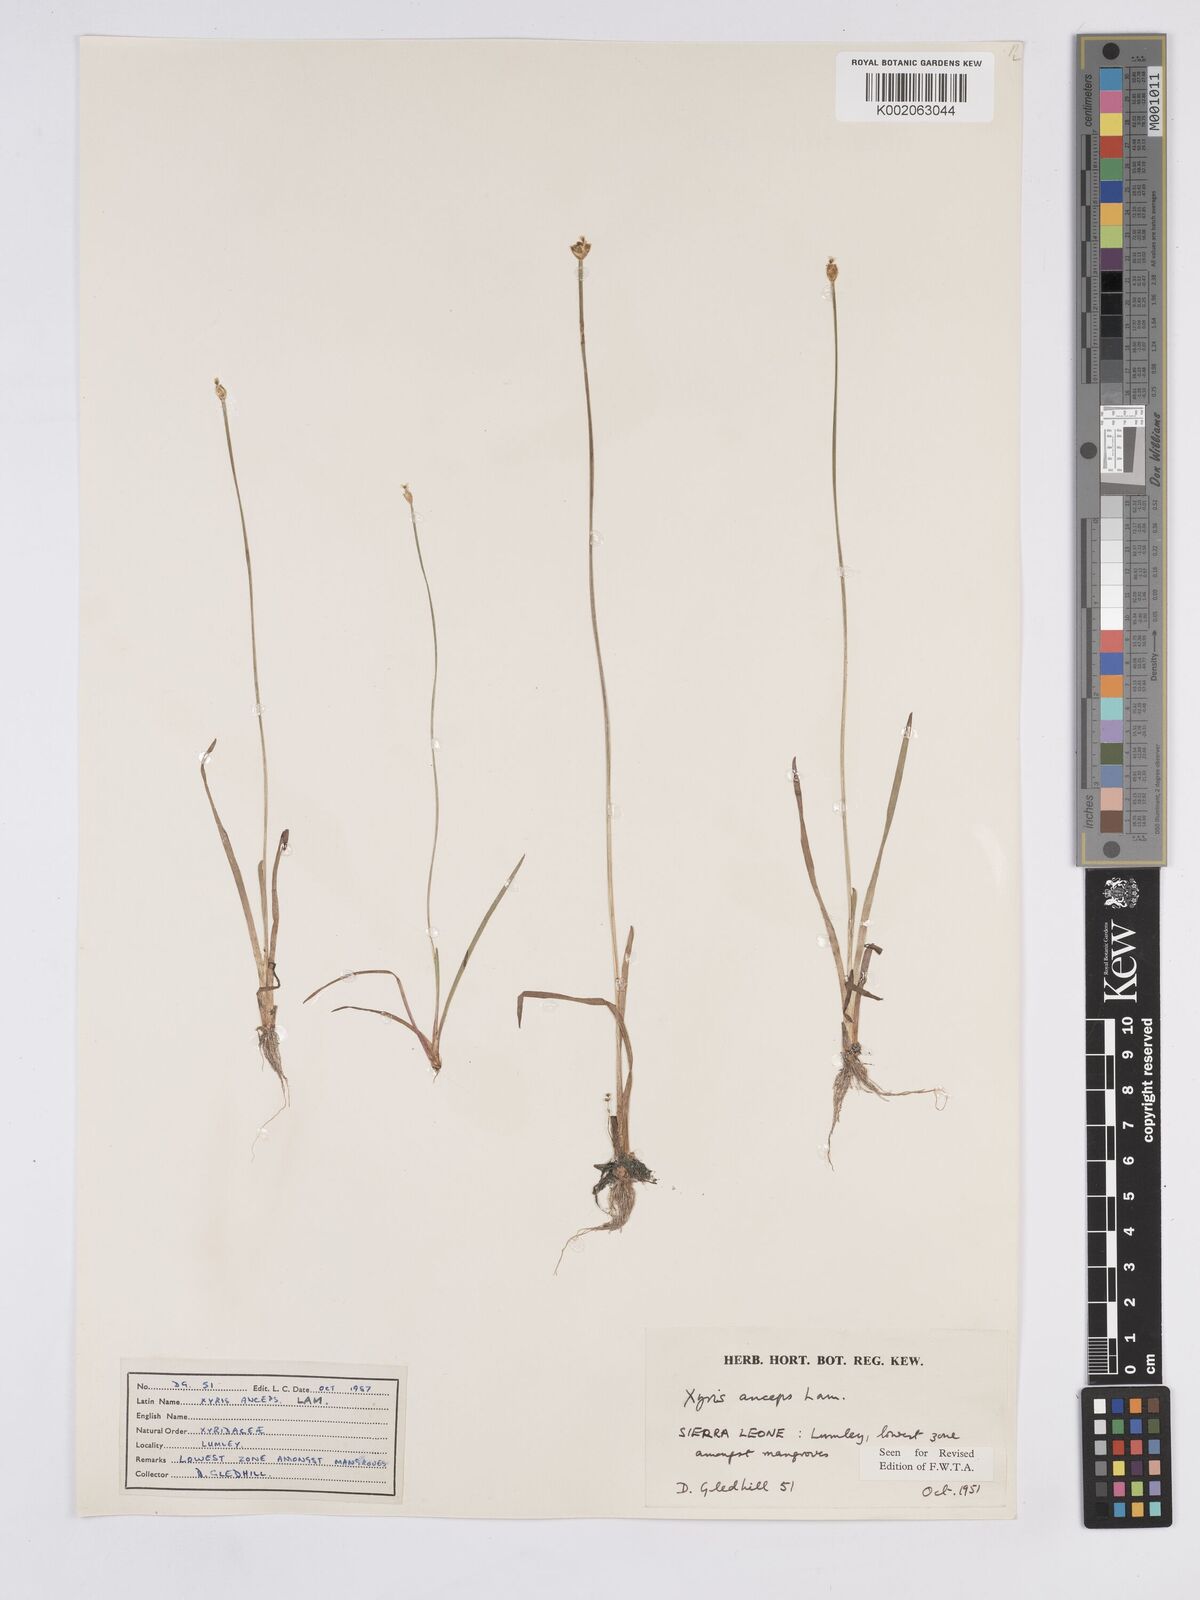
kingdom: Plantae
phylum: Tracheophyta
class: Liliopsida
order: Poales
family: Xyridaceae
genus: Xyris
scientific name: Xyris anceps
